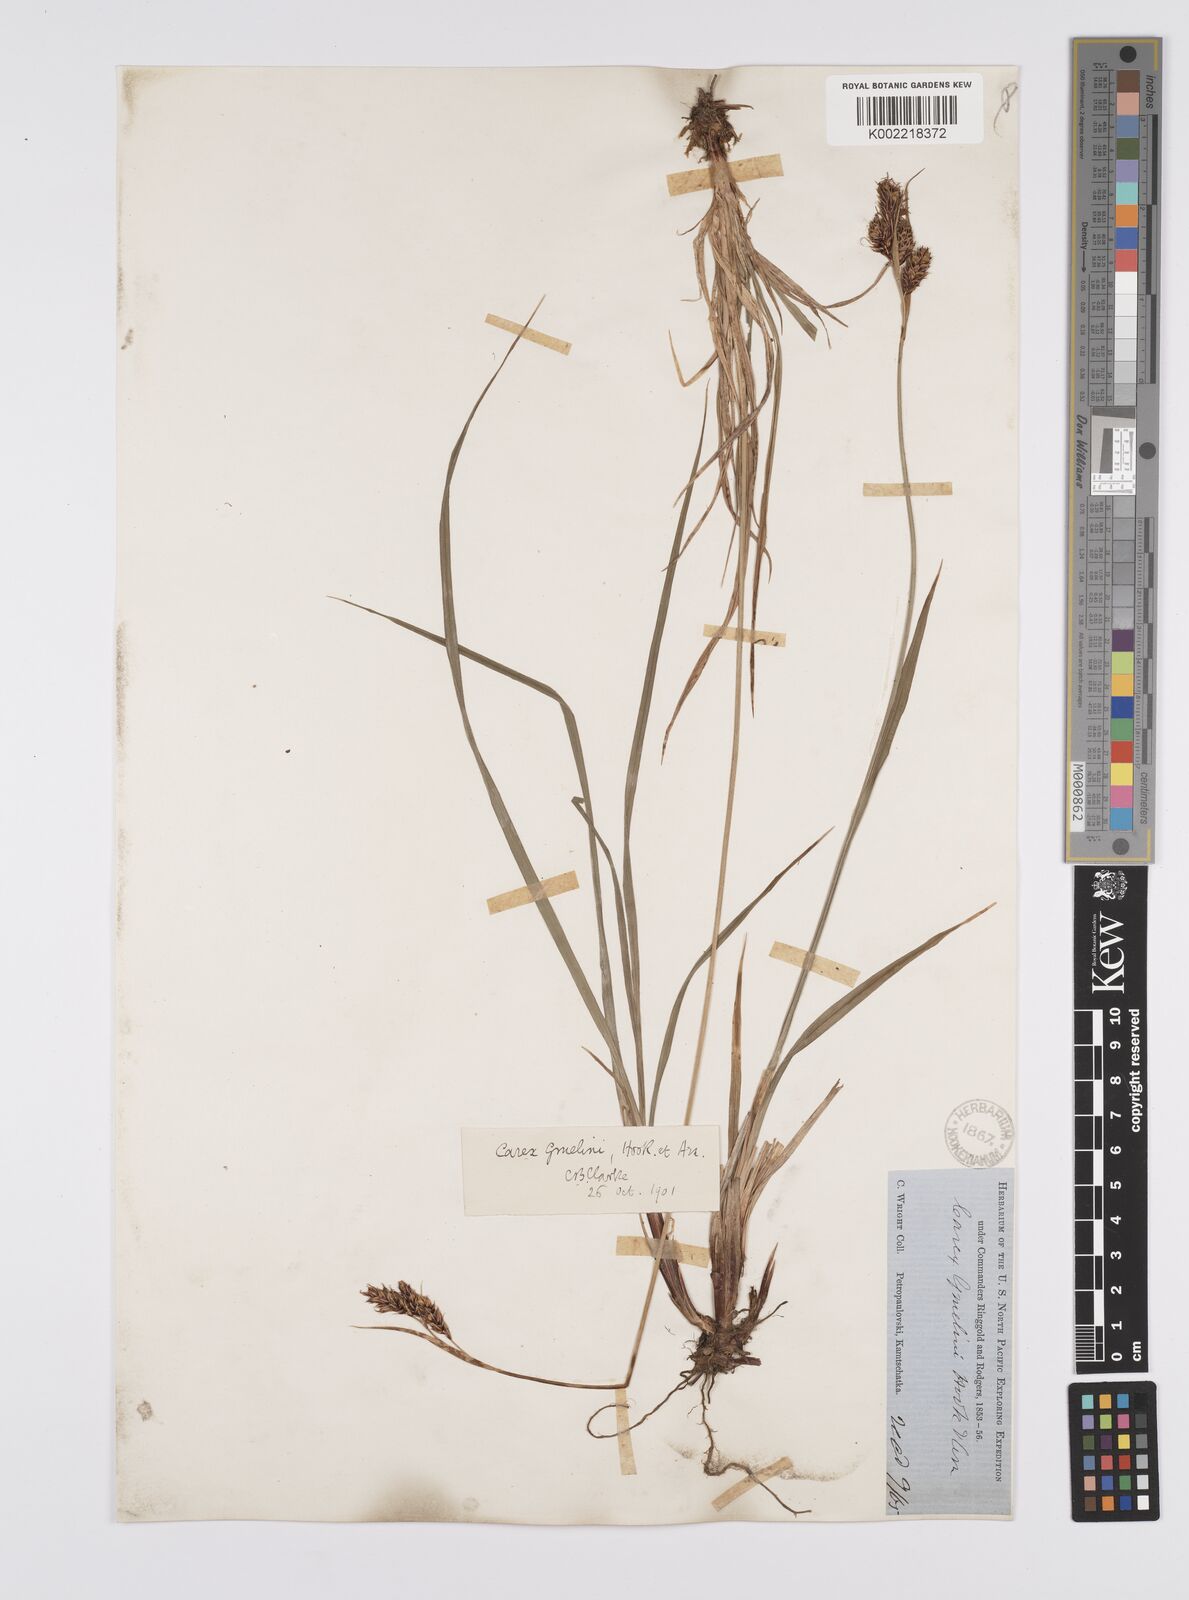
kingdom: Plantae
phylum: Tracheophyta
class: Liliopsida
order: Poales
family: Cyperaceae
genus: Carex
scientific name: Carex gmelinii
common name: Gmelin's sedge
